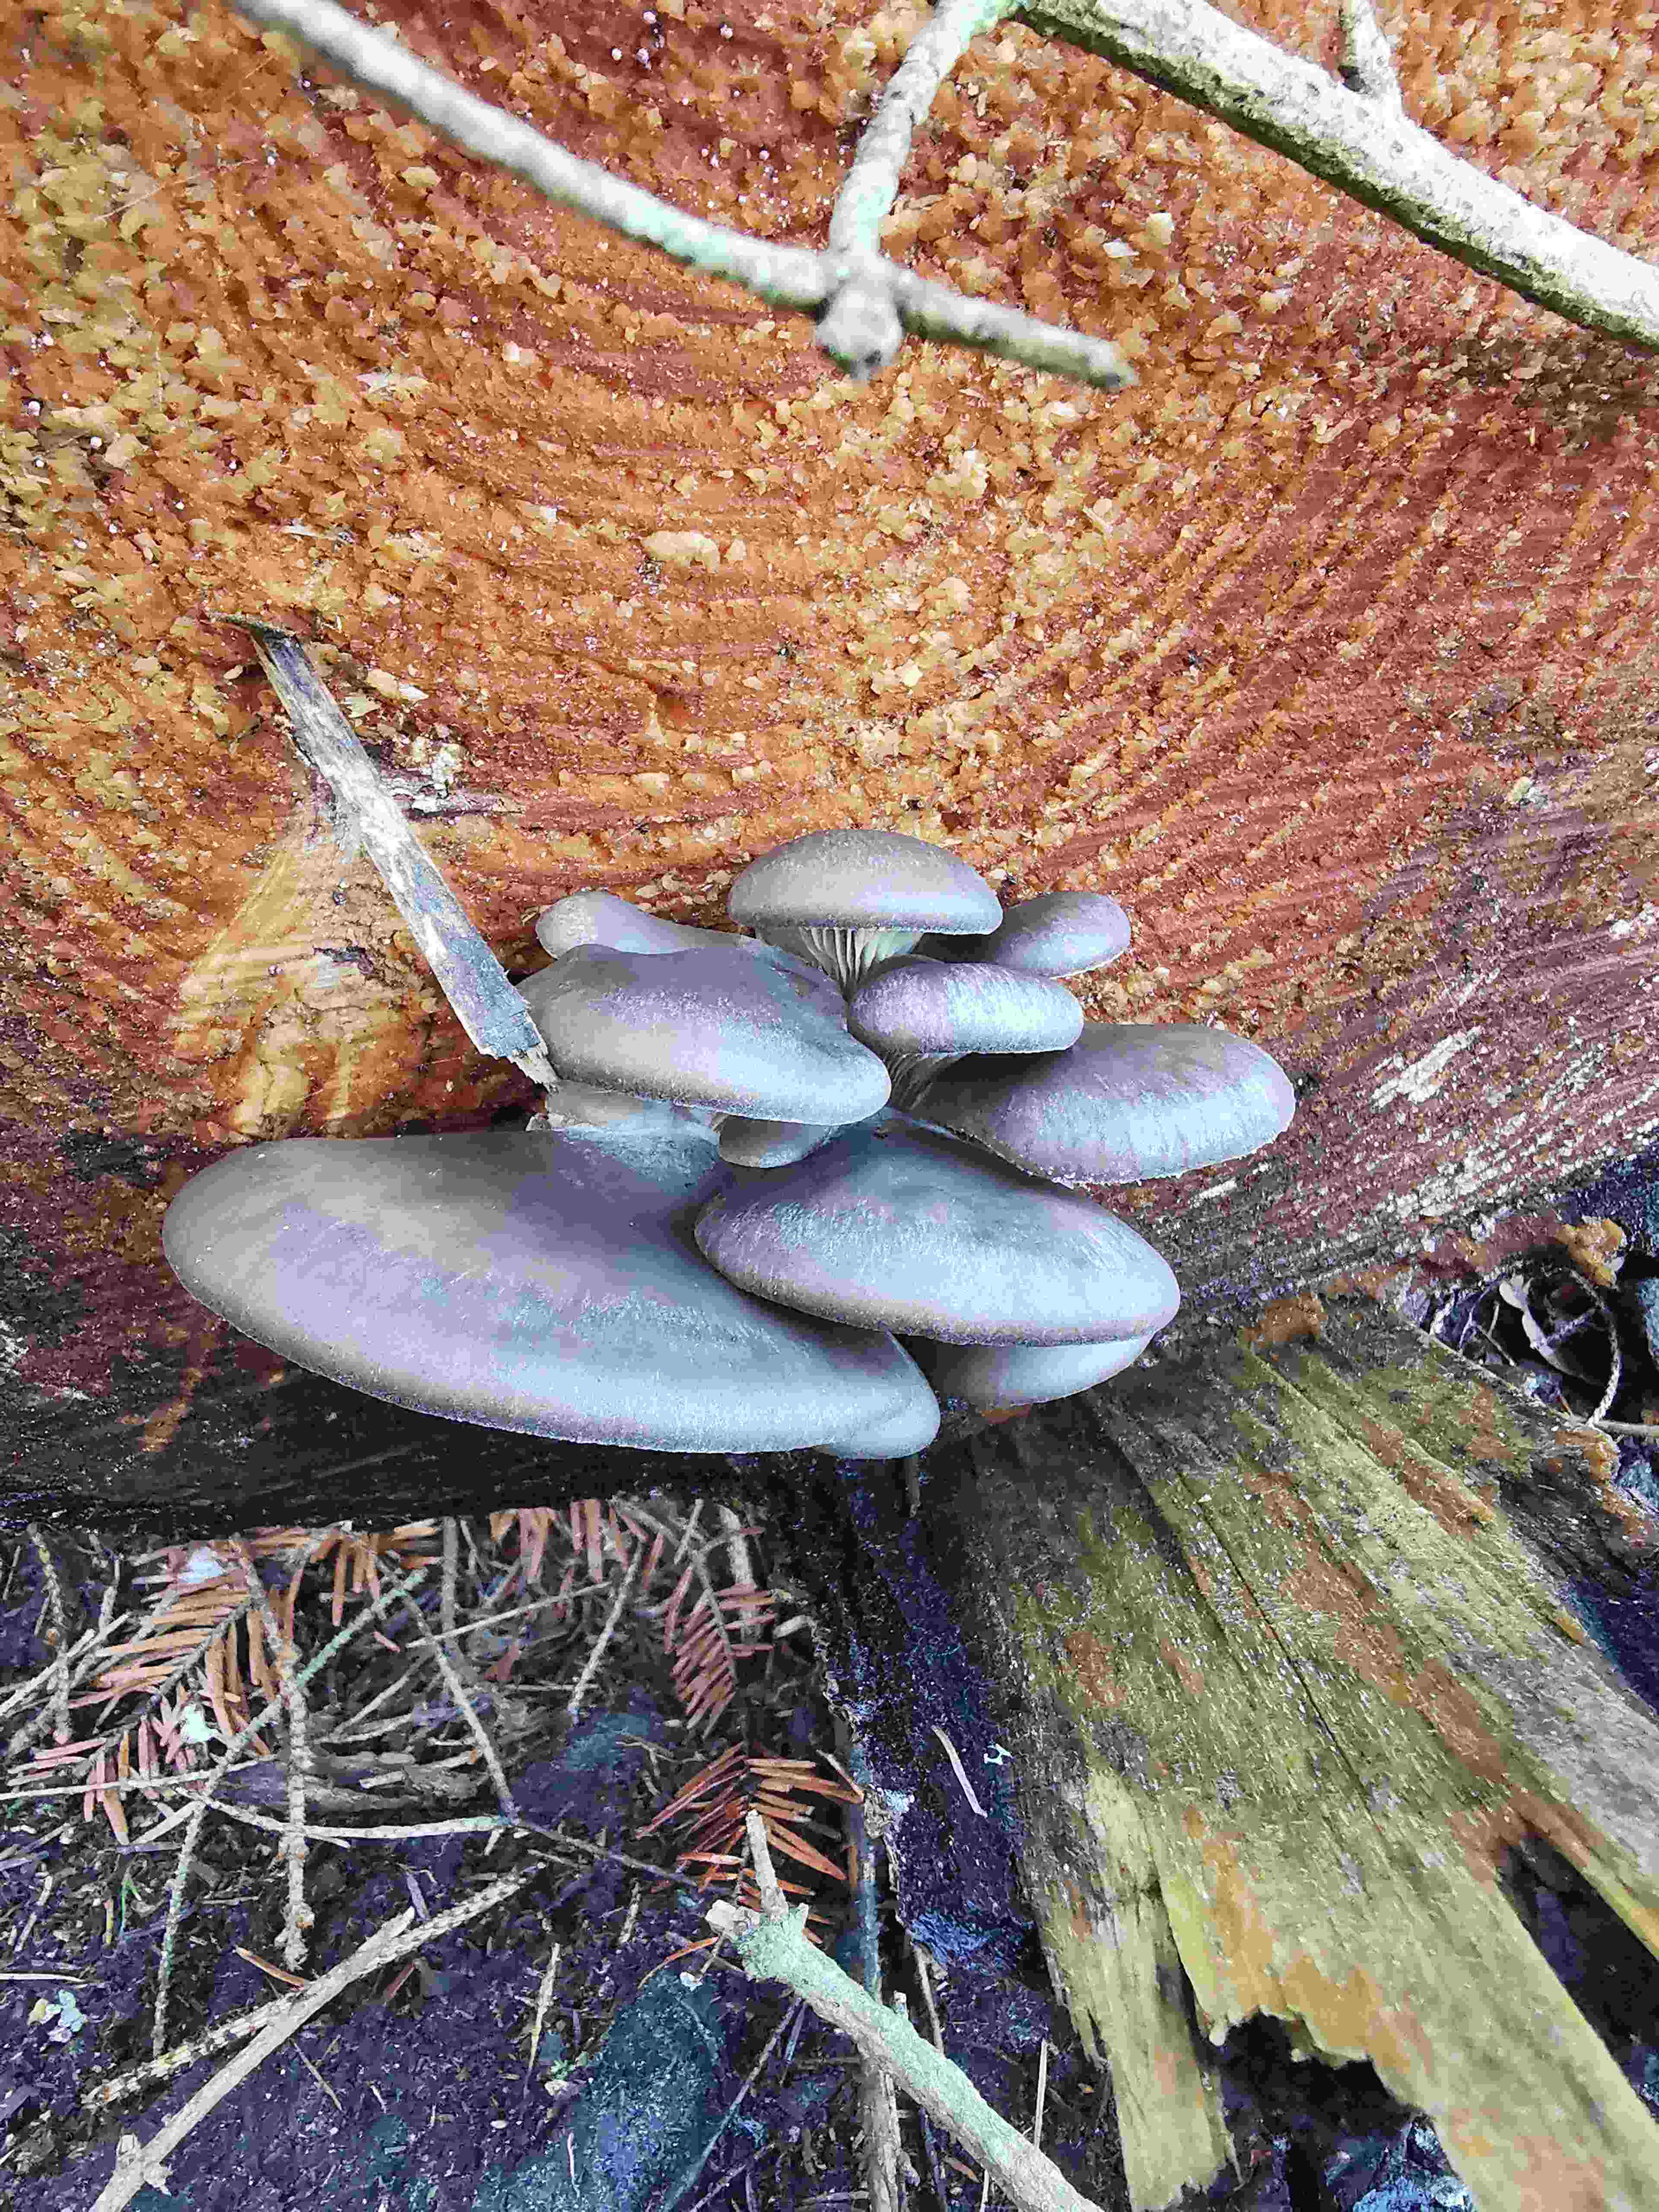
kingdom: Fungi
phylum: Basidiomycota
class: Agaricomycetes
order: Agaricales
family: Pleurotaceae
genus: Pleurotus
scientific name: Pleurotus ostreatus
